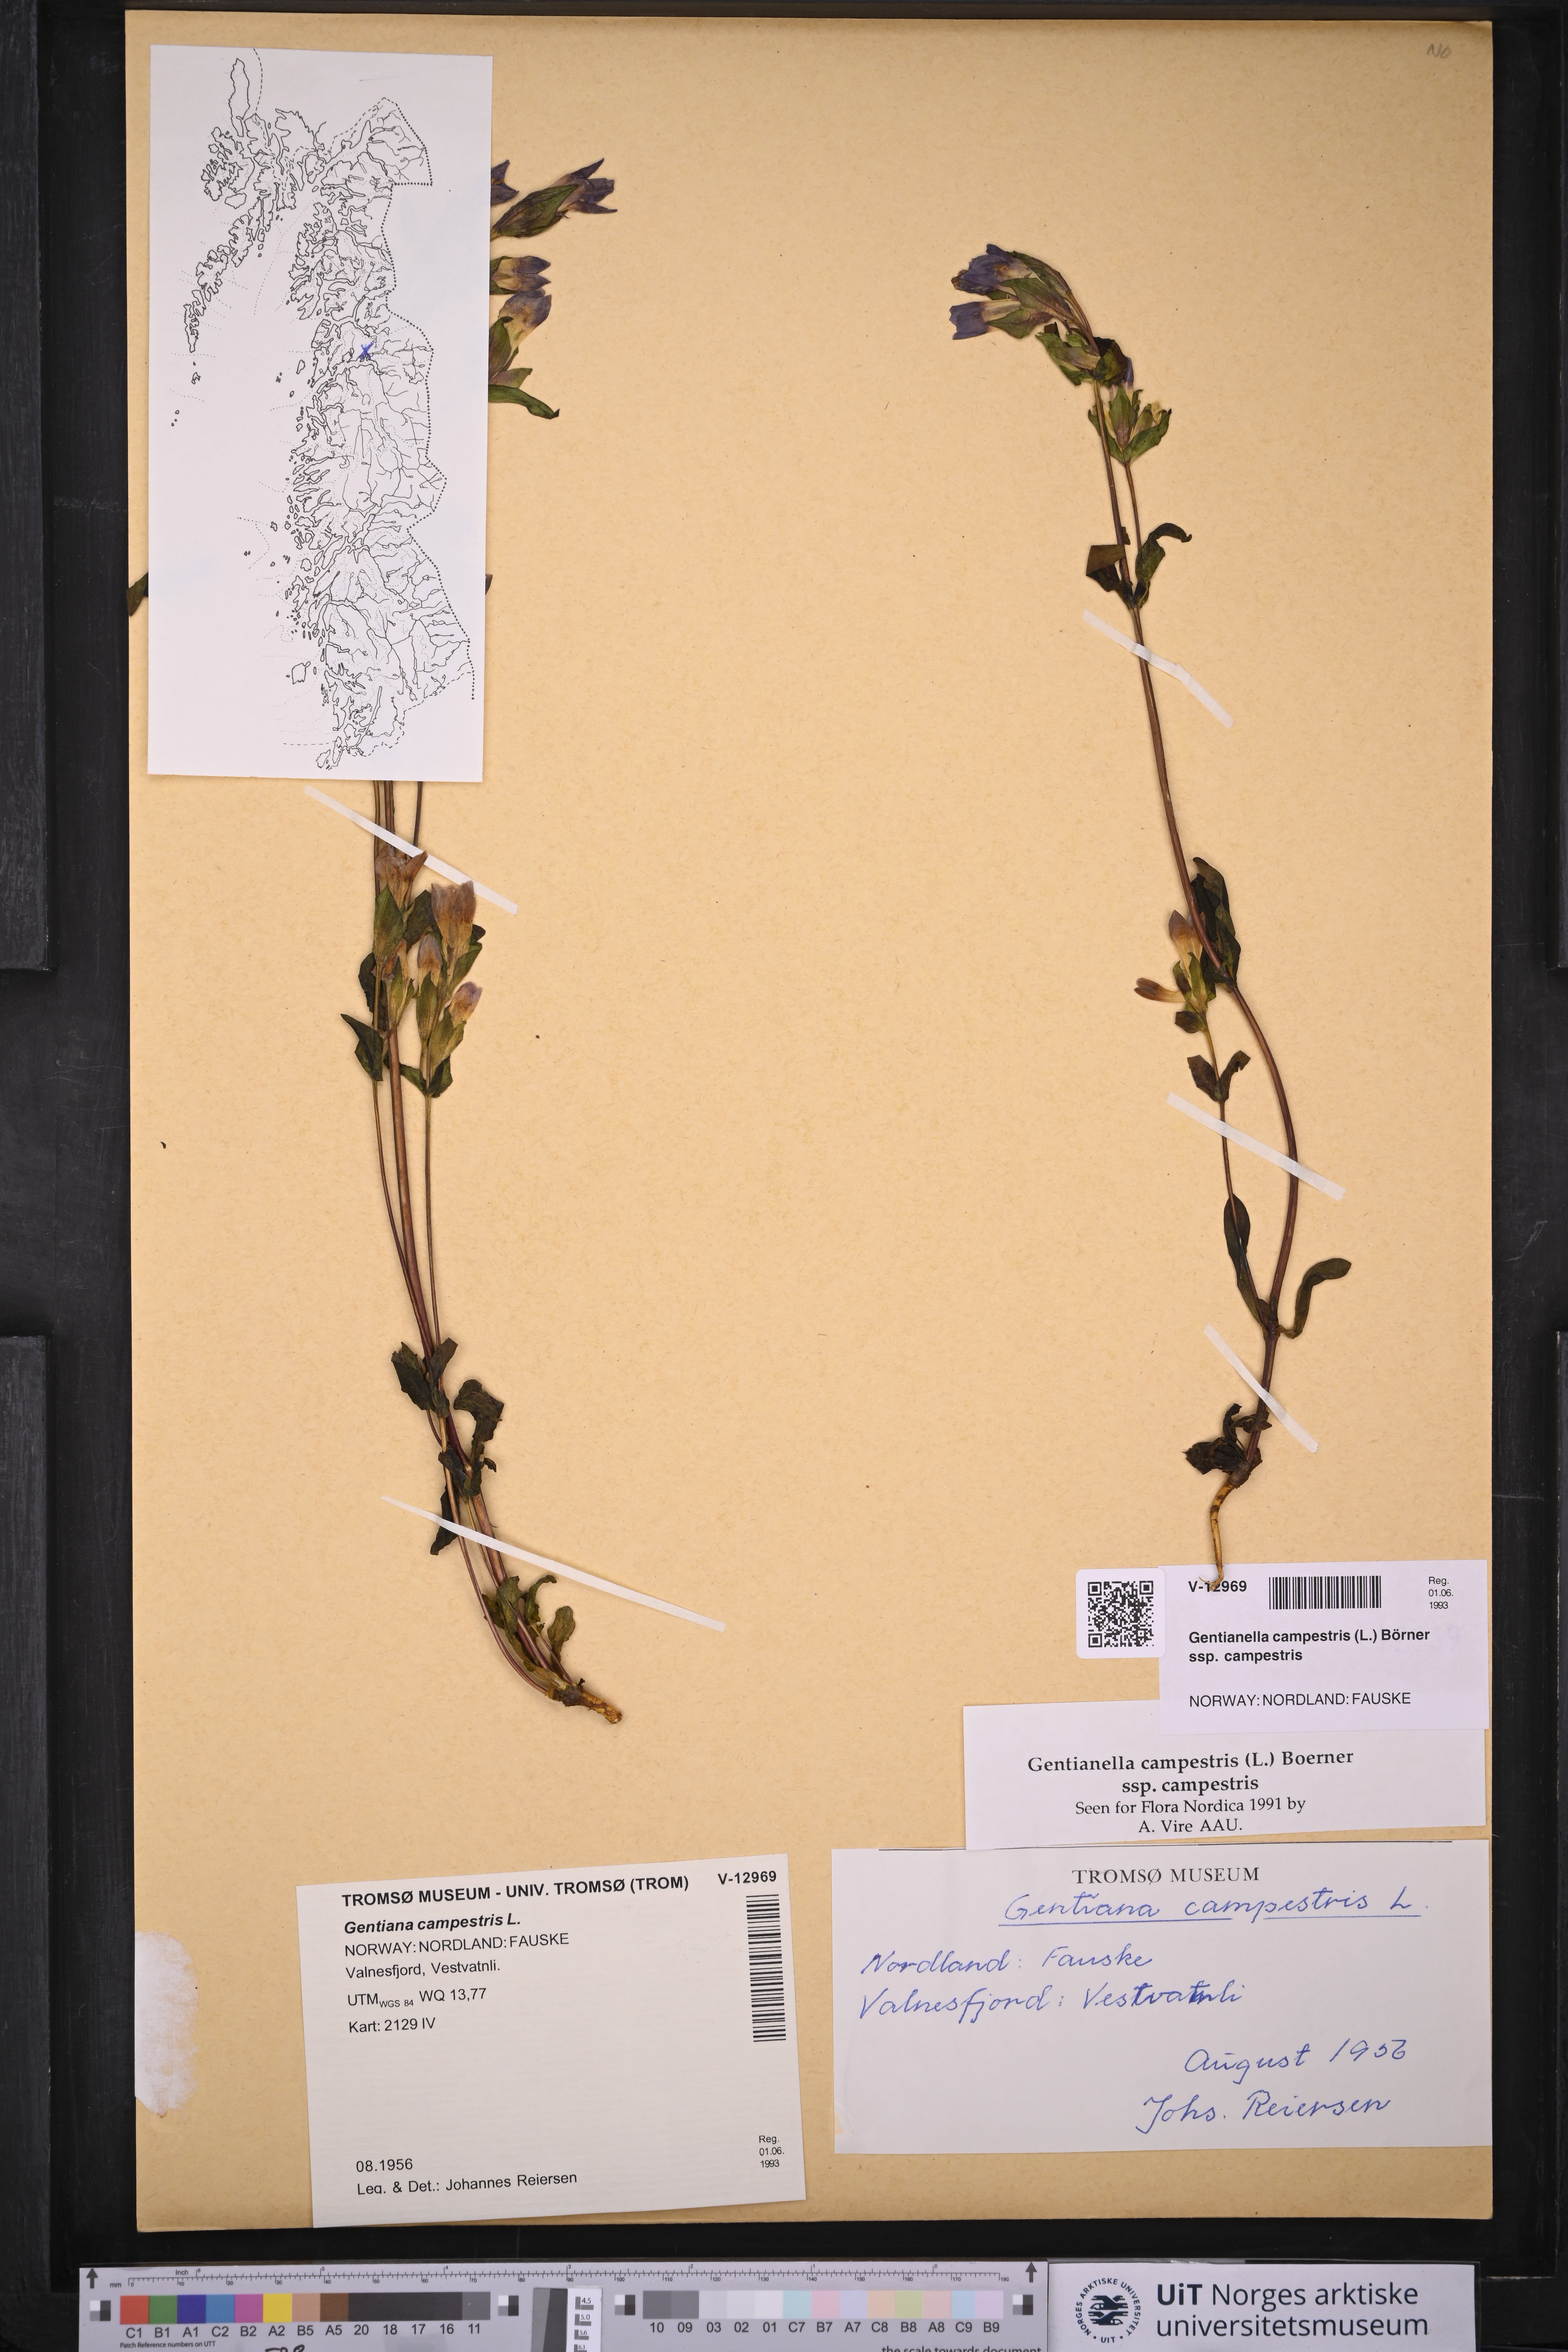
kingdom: Plantae
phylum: Tracheophyta
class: Magnoliopsida
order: Gentianales
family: Gentianaceae
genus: Gentianella
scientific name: Gentianella campestris
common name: Field gentian
